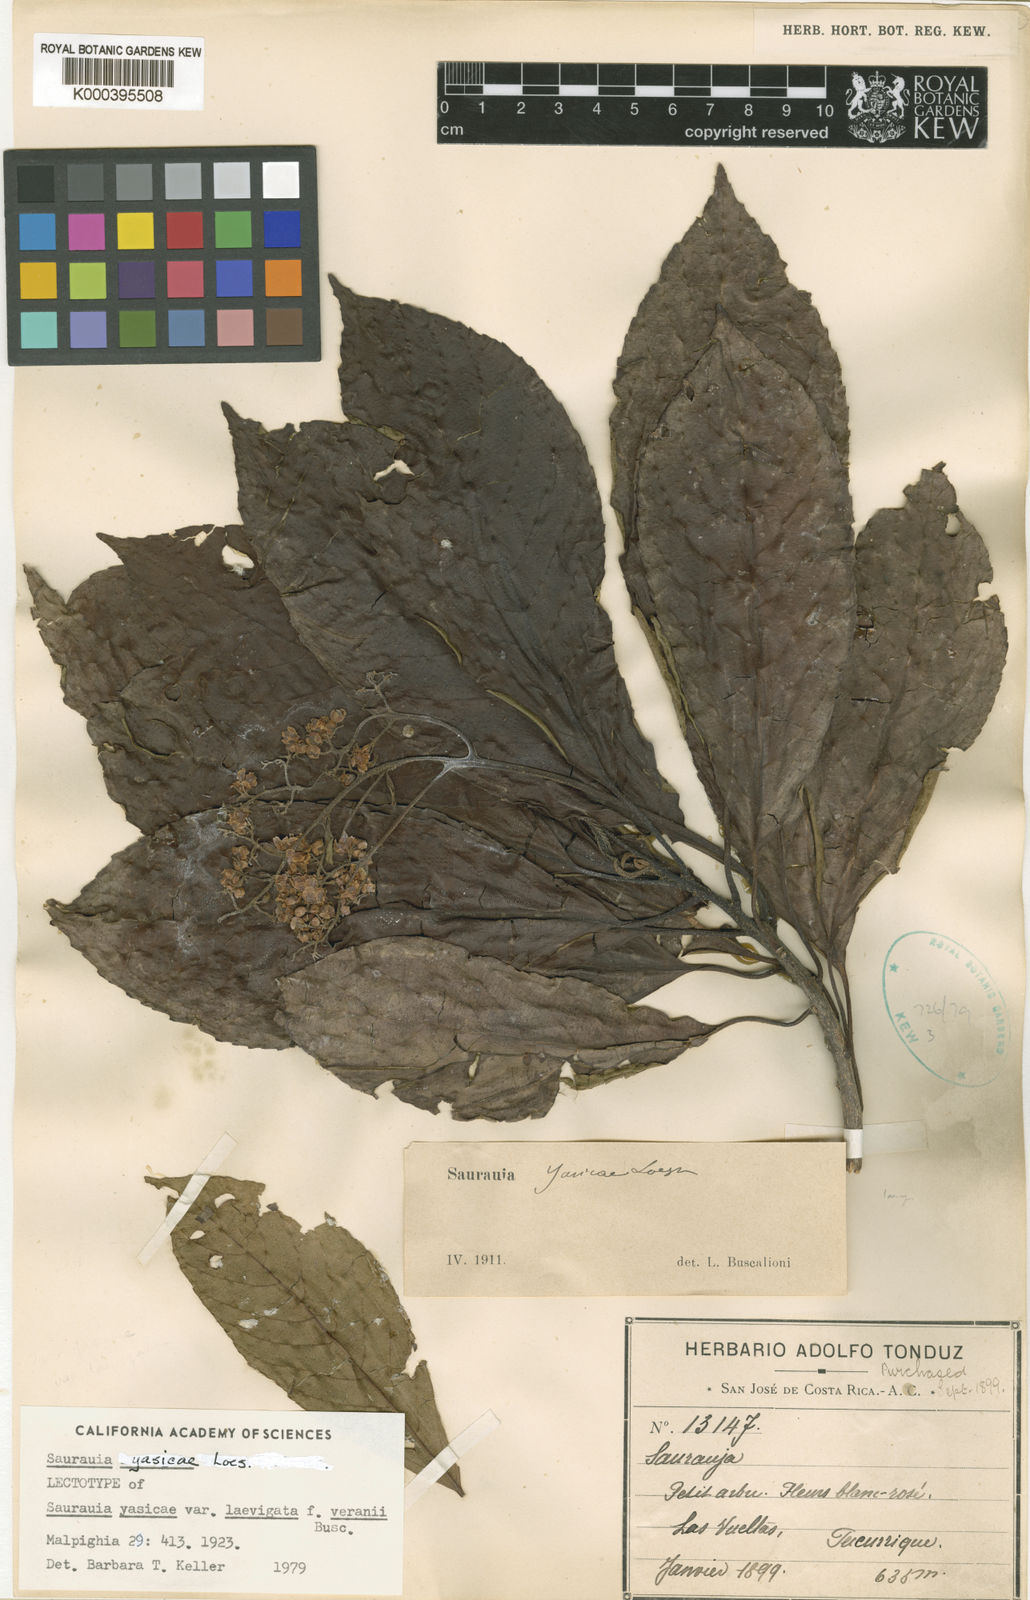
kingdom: Plantae
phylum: Tracheophyta
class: Magnoliopsida
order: Ericales
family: Actinidiaceae
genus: Saurauia
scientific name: Saurauia yasicae
